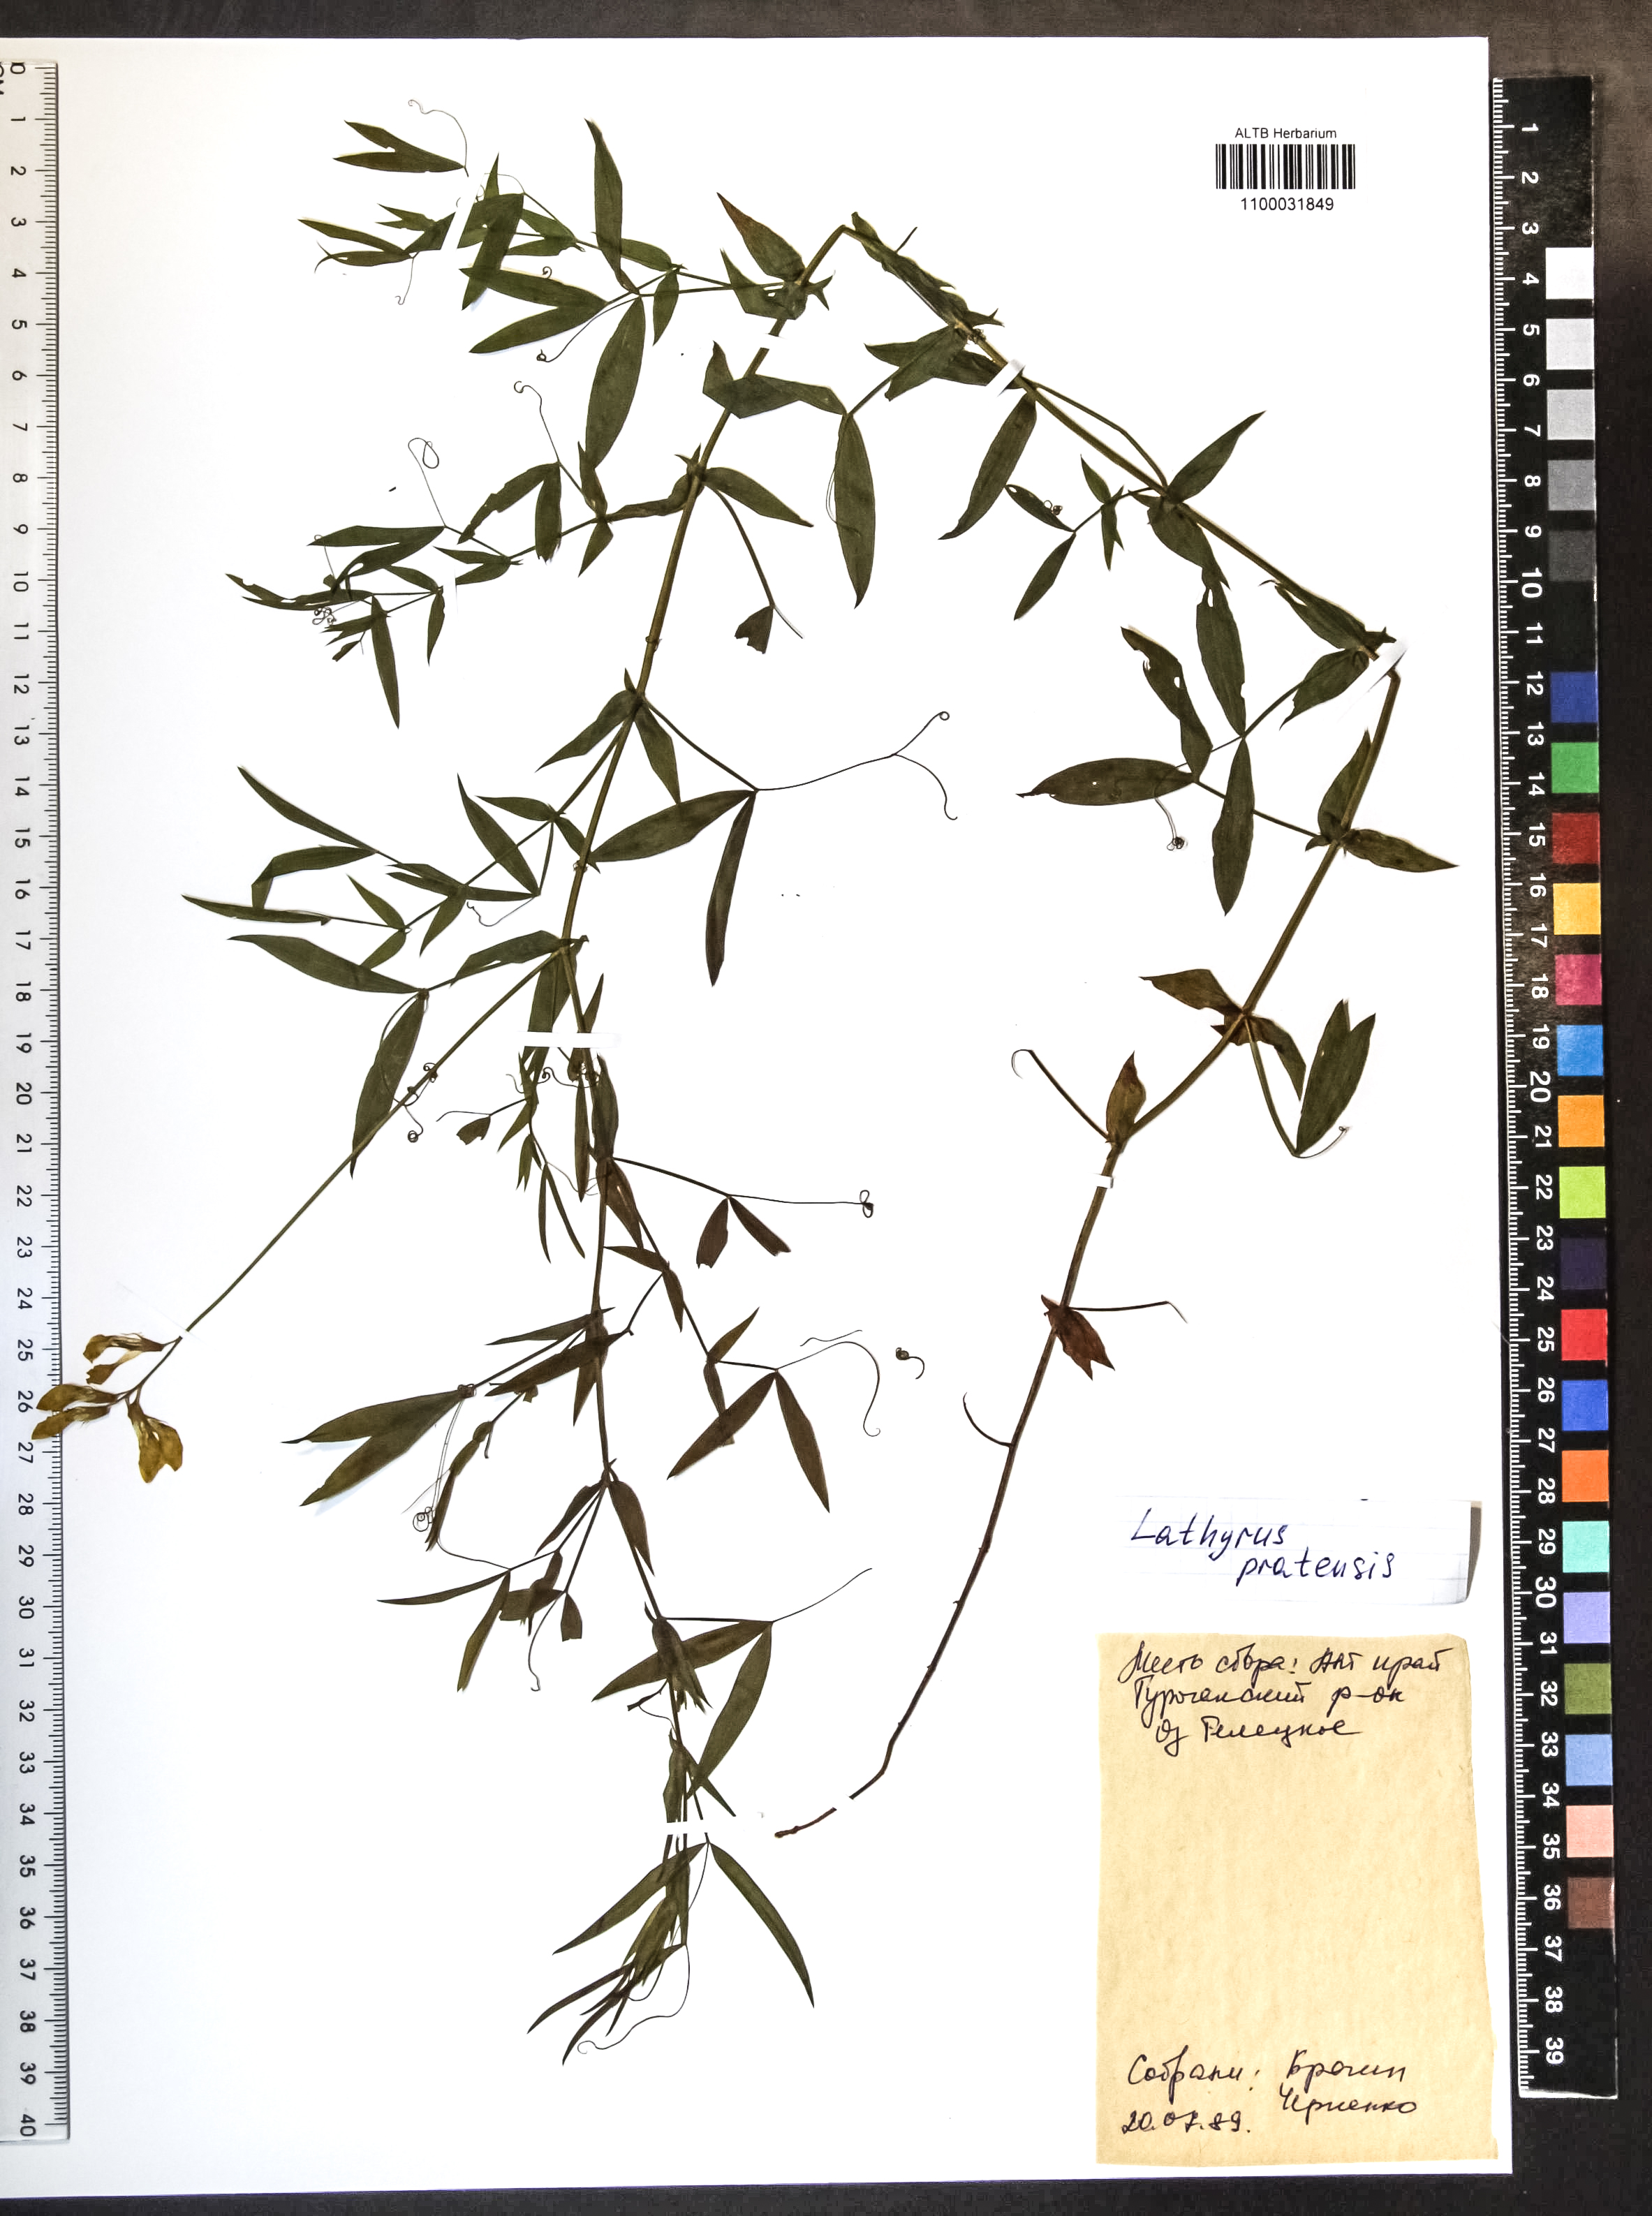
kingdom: Plantae
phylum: Tracheophyta
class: Magnoliopsida
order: Fabales
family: Fabaceae
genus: Lathyrus
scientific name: Lathyrus pratensis
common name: Meadow vetchling
